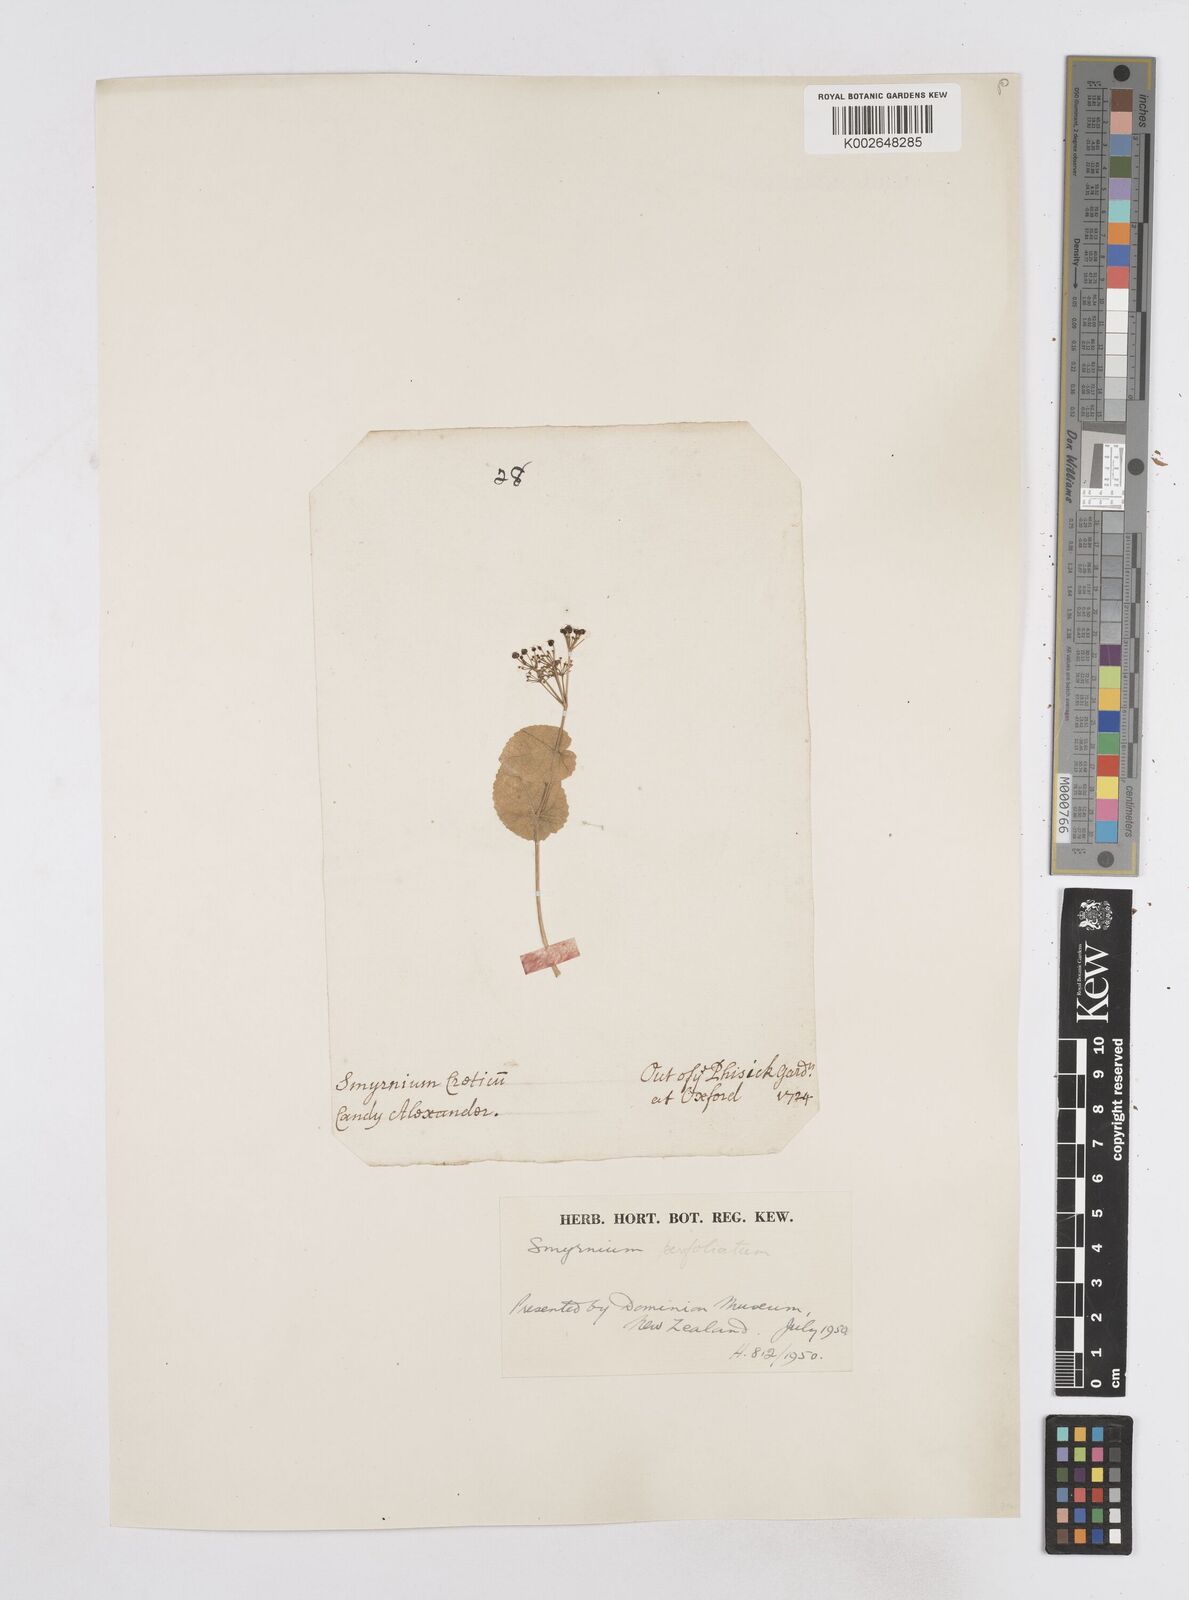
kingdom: Plantae
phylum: Tracheophyta
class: Magnoliopsida
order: Apiales
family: Apiaceae
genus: Smyrnium
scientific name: Smyrnium perfoliatum
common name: Perfoliate alexanders
